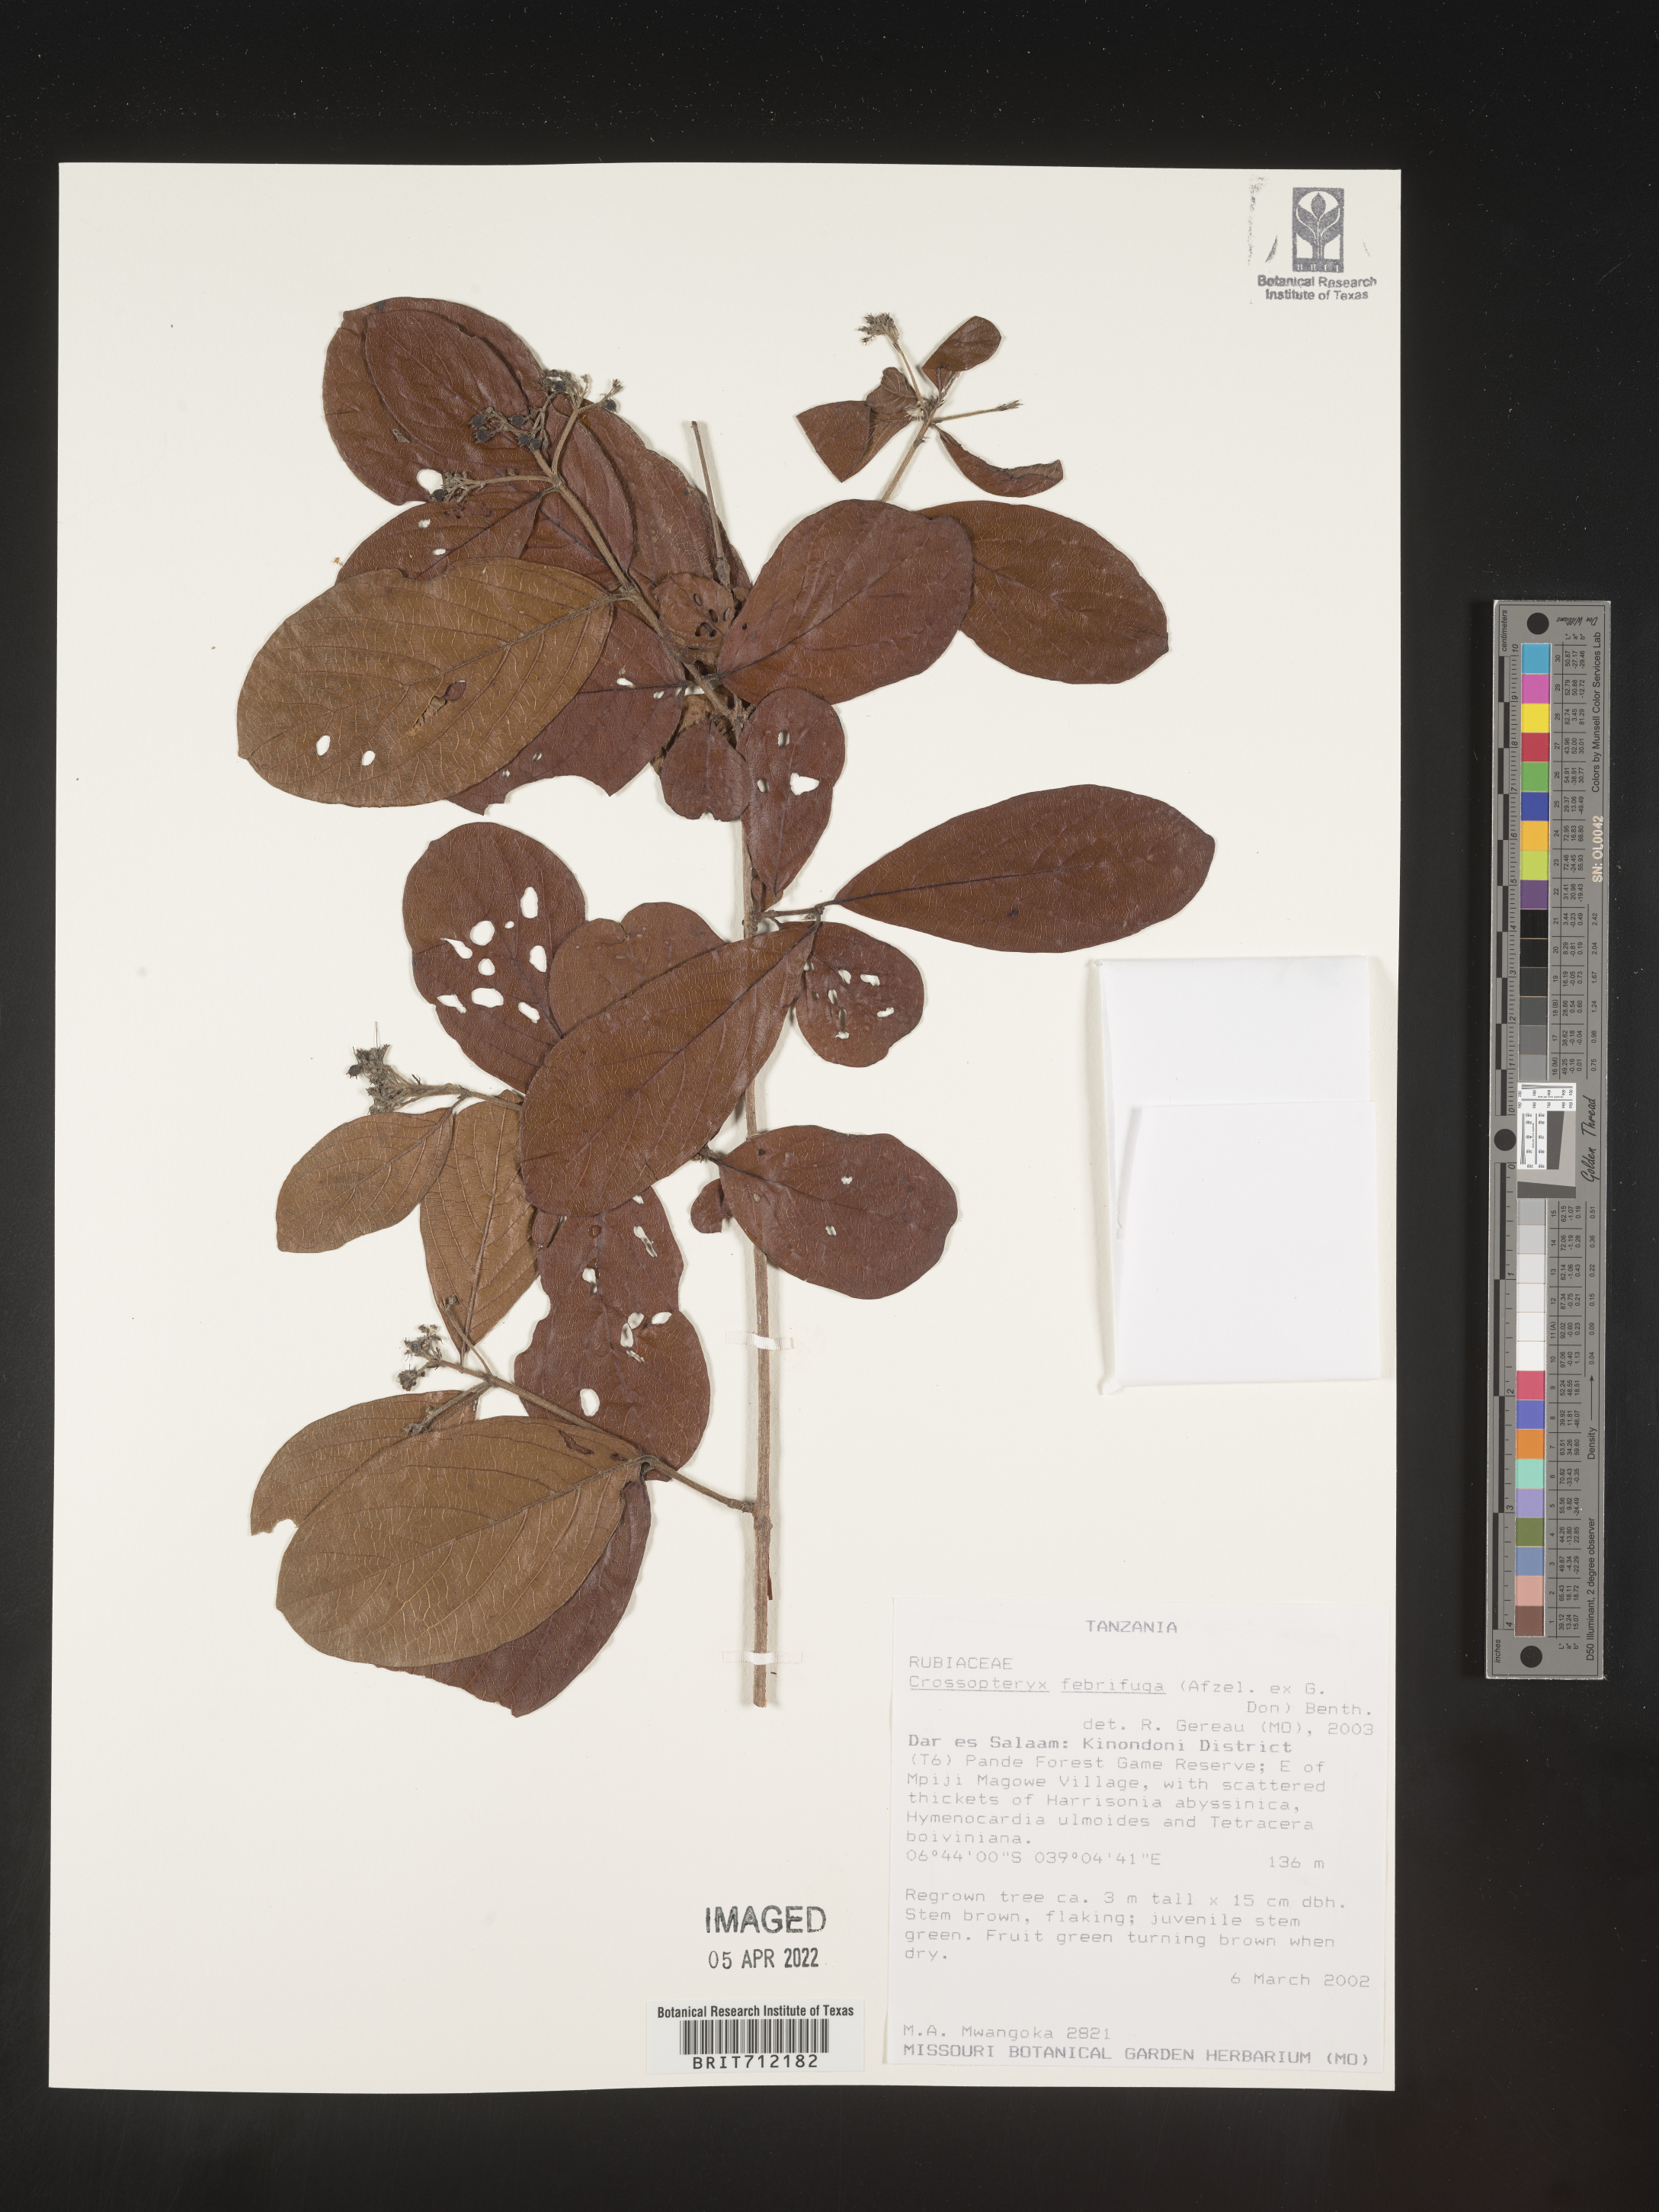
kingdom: Plantae
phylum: Tracheophyta
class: Magnoliopsida
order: Gentianales
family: Rubiaceae
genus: Crossopteryx
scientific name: Crossopteryx
